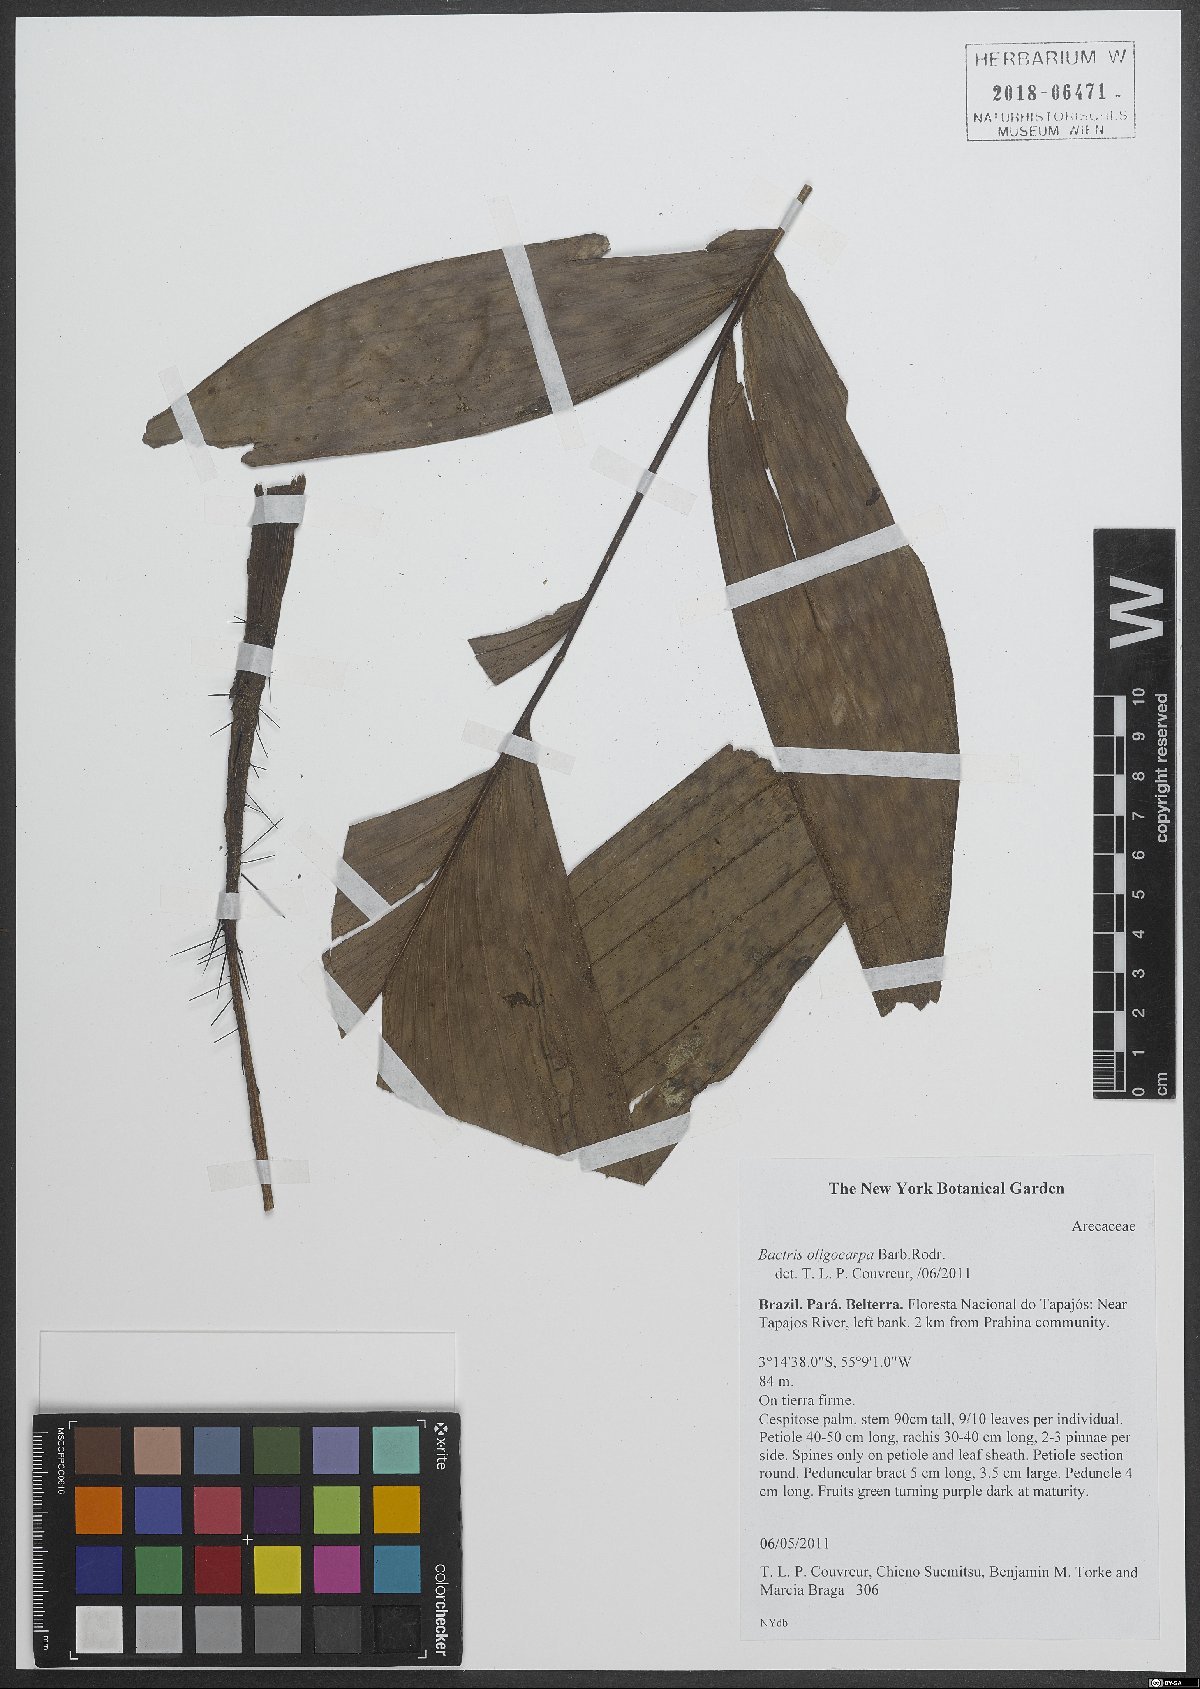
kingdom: Plantae
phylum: Tracheophyta
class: Liliopsida
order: Arecales
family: Arecaceae
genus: Bactris
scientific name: Bactris oligocarpa
